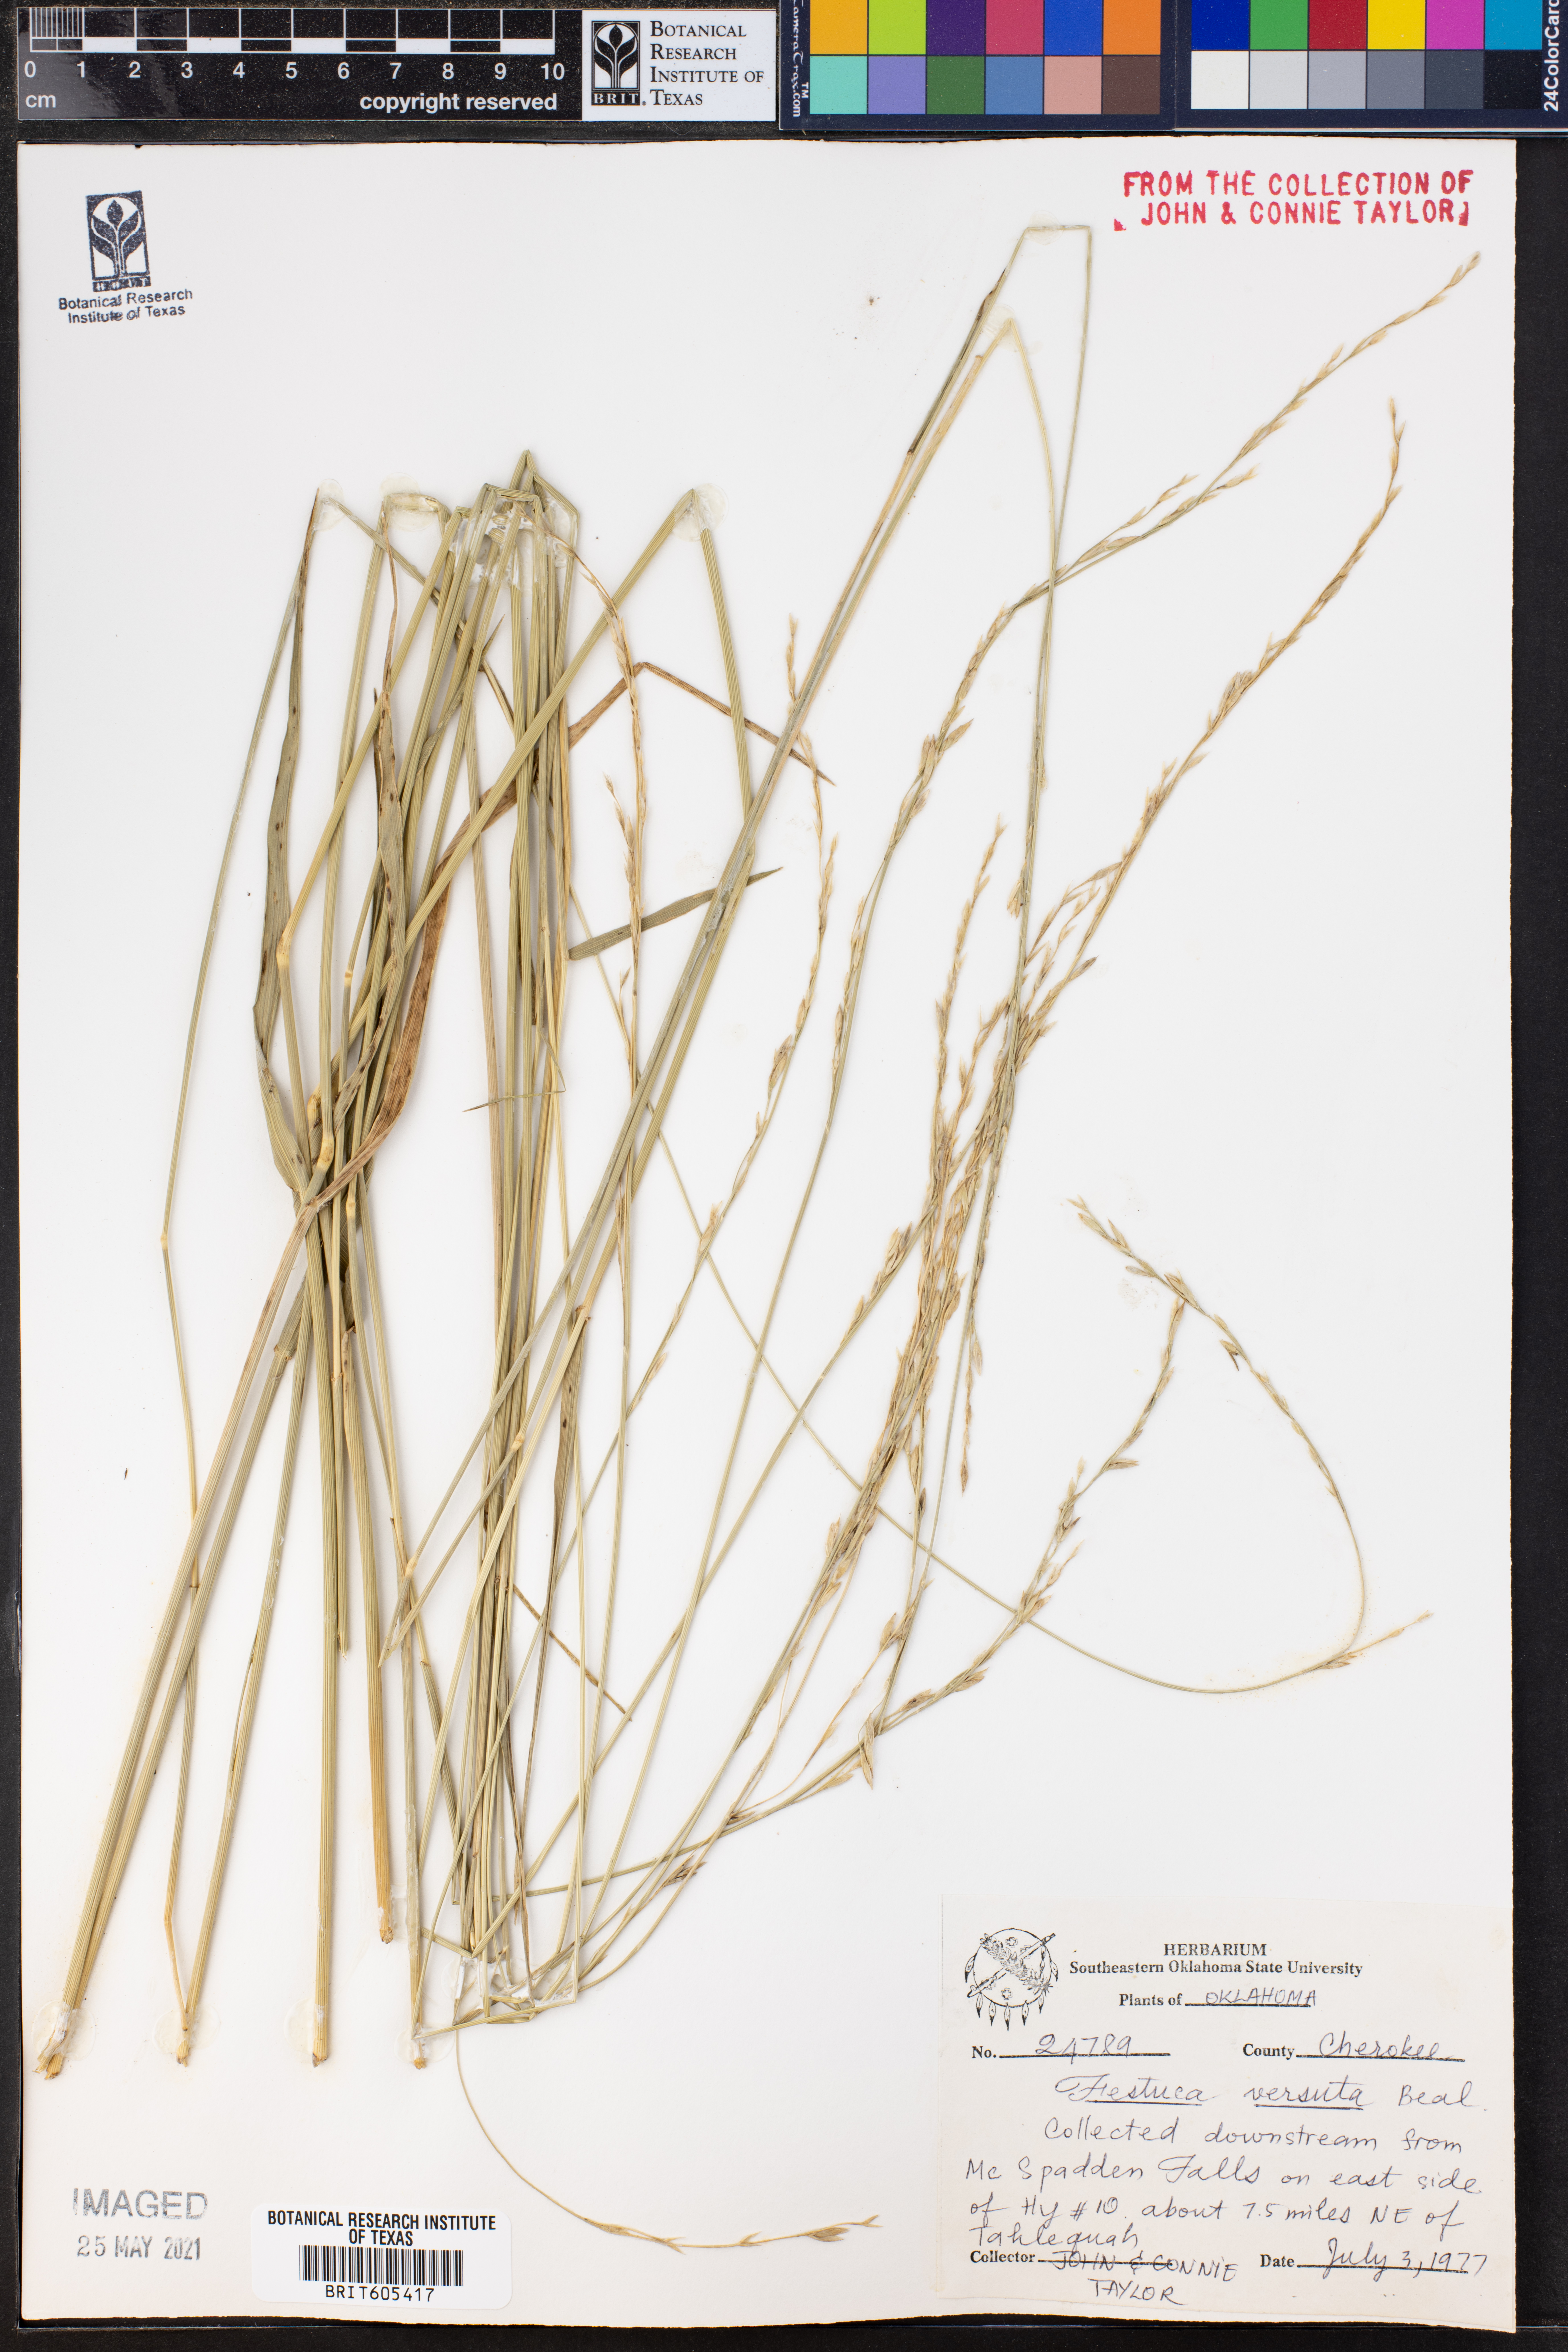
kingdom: Plantae
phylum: Tracheophyta
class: Liliopsida
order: Poales
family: Poaceae
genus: Festuca
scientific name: Festuca versuta
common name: Texas fescue
